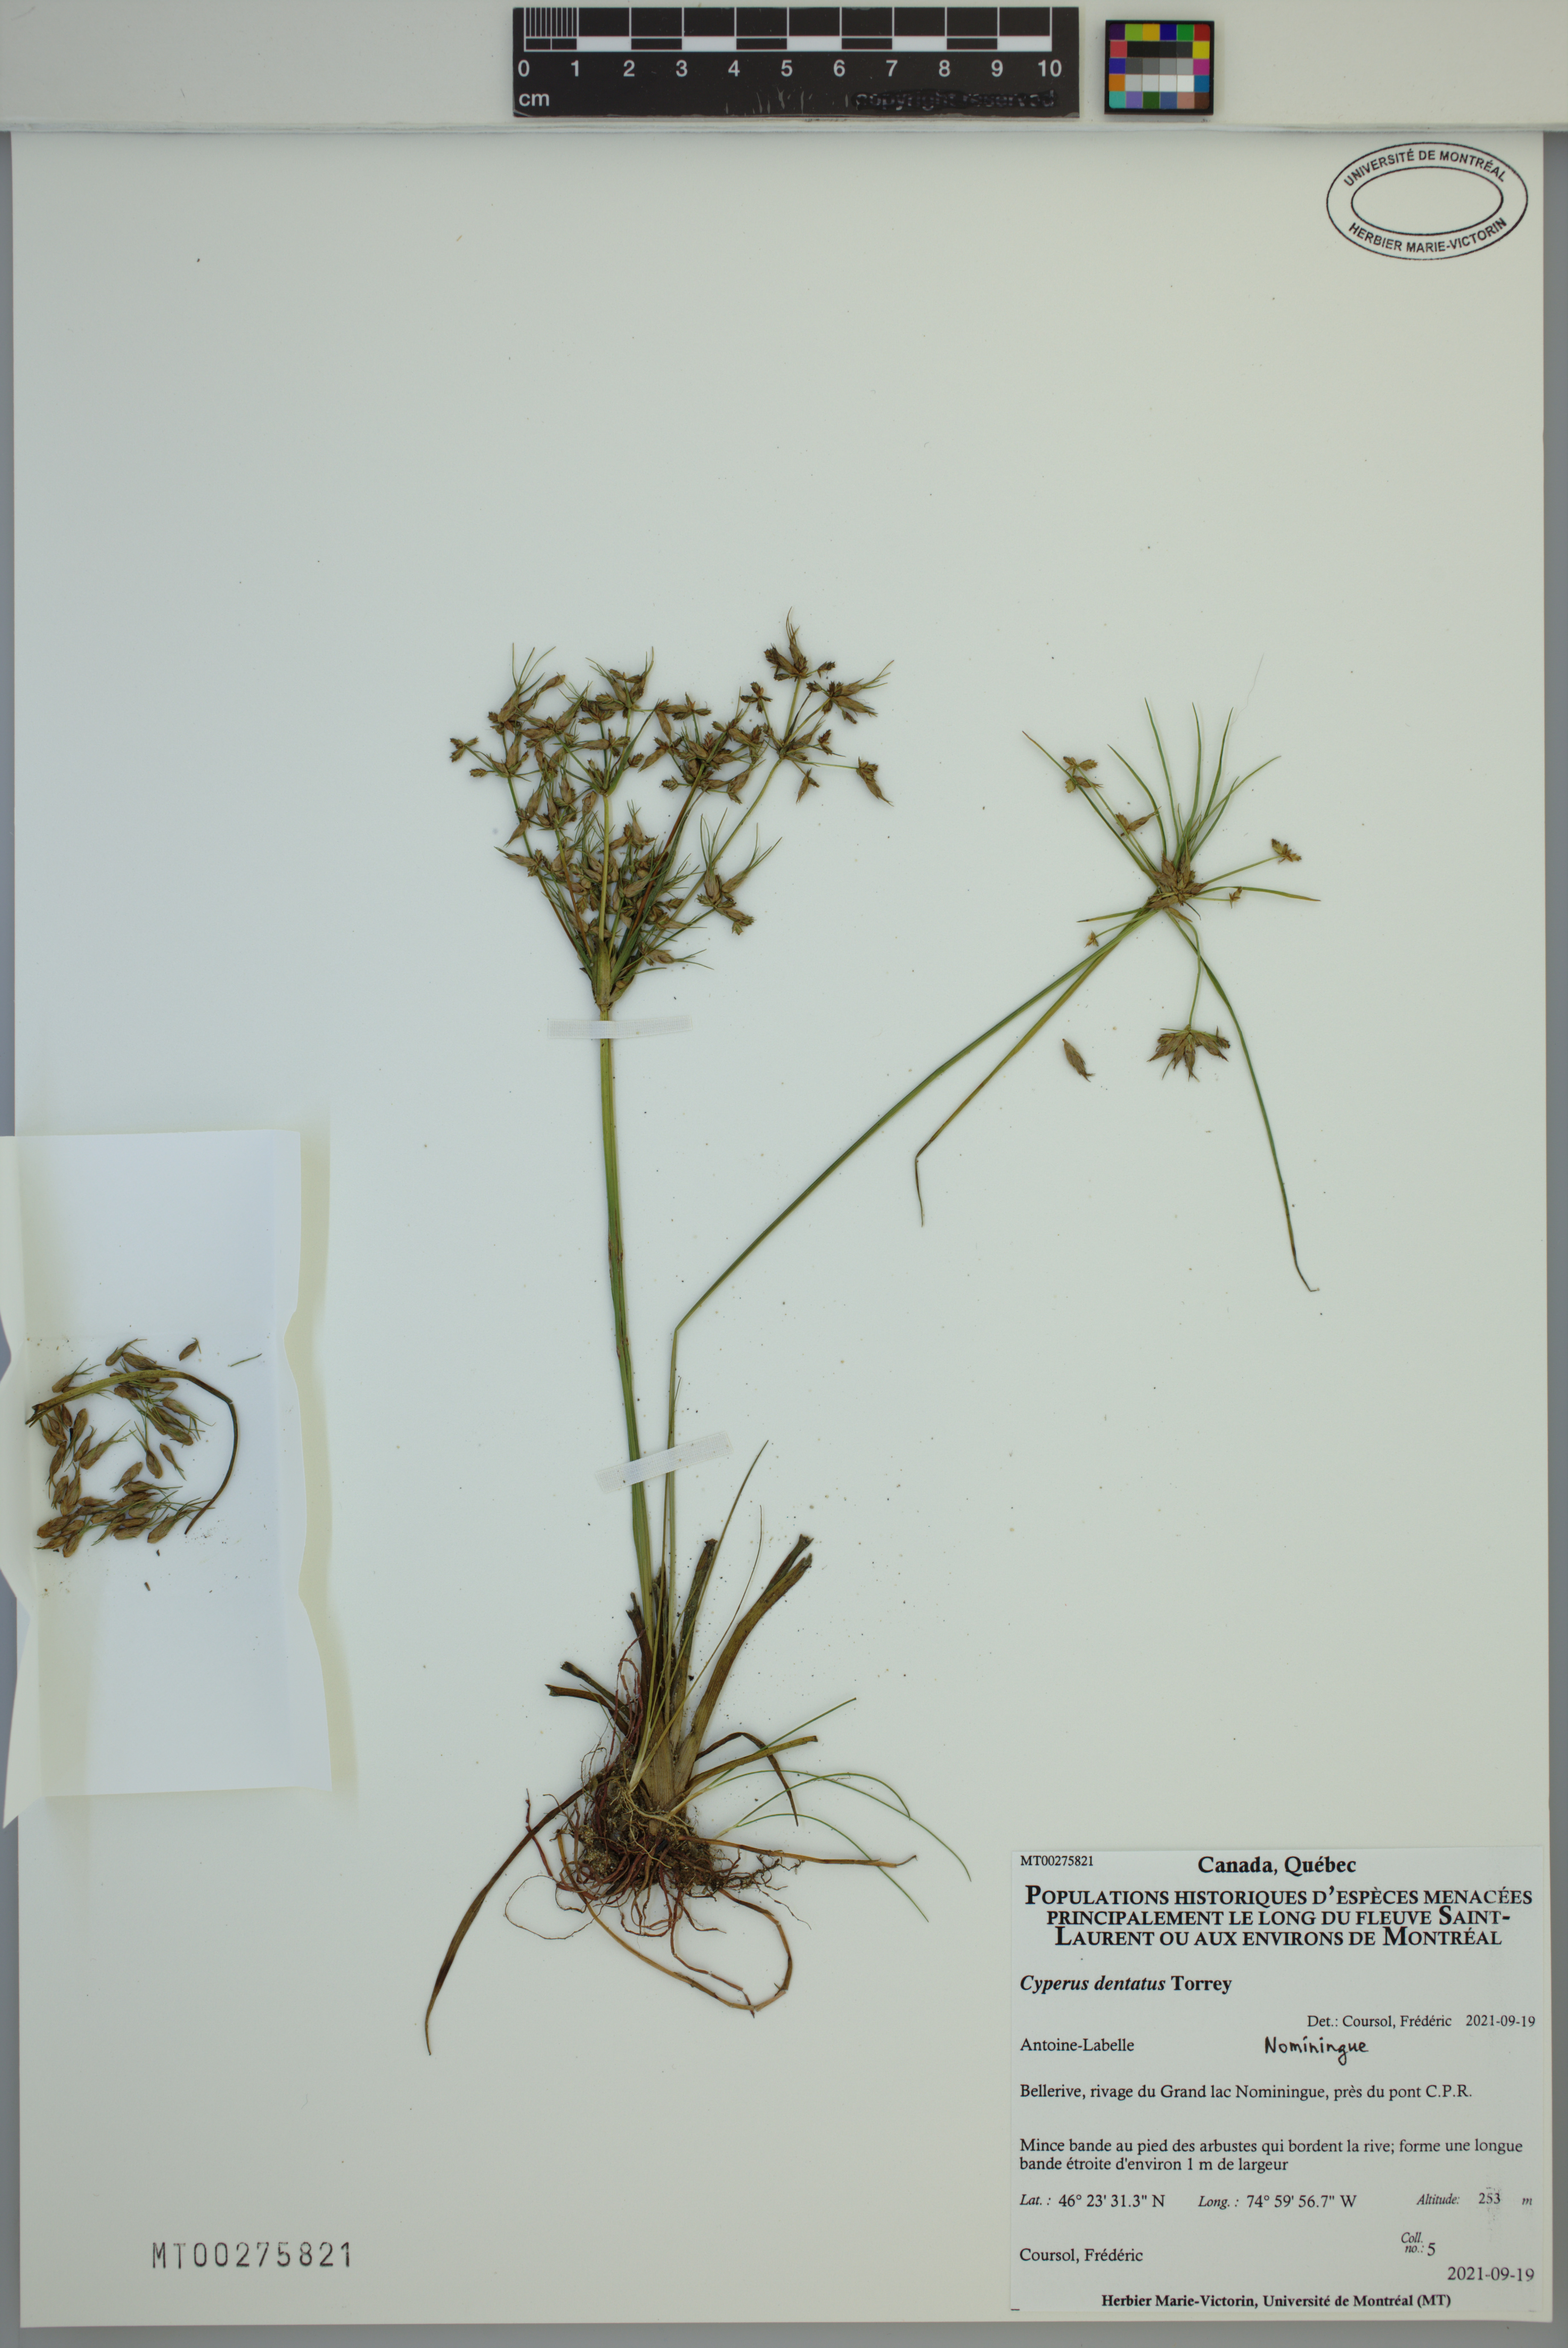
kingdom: Plantae
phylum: Tracheophyta
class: Liliopsida
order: Poales
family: Cyperaceae
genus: Cyperus
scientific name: Cyperus dentatus
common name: Dentate umbrella sedge
